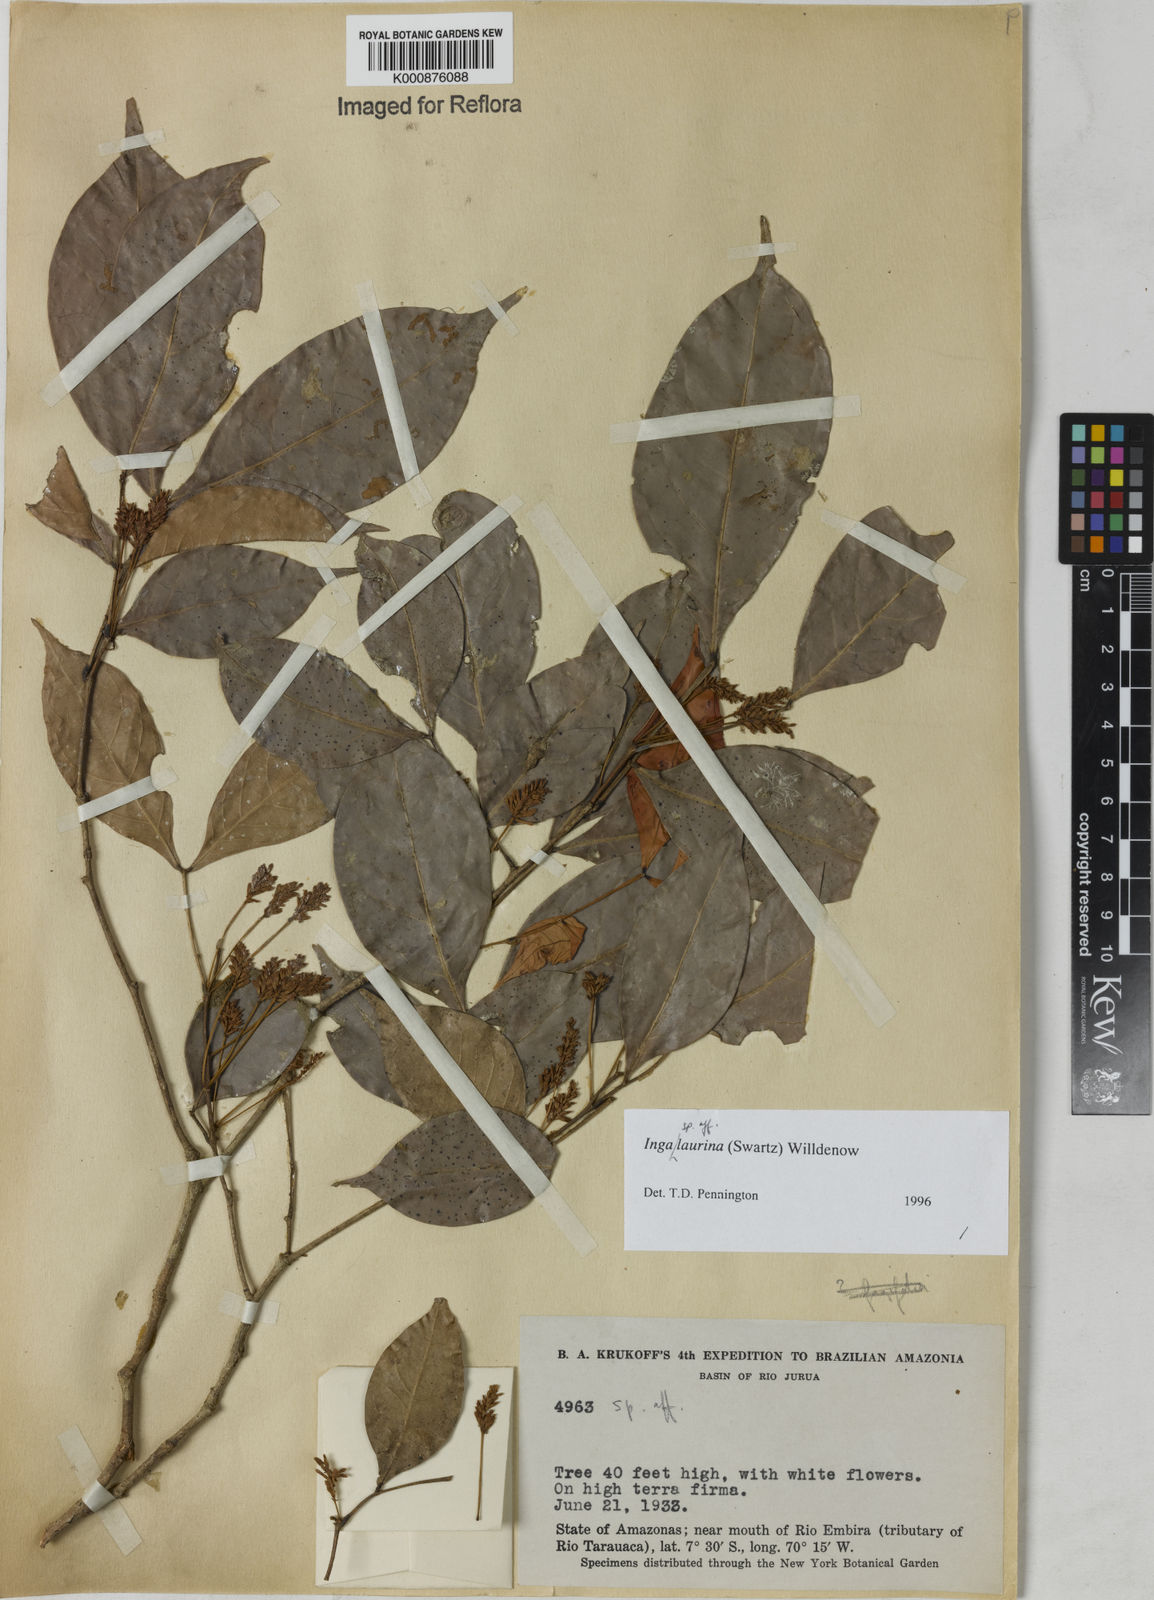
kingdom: Plantae
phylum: Tracheophyta
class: Magnoliopsida
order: Fabales
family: Fabaceae
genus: Inga
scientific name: Inga laurina
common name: Red wood
